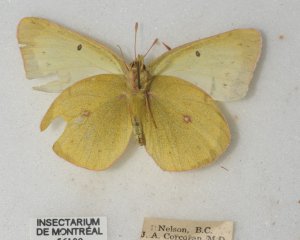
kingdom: Animalia
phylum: Arthropoda
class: Insecta
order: Lepidoptera
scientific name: Lepidoptera
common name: Butterflies
